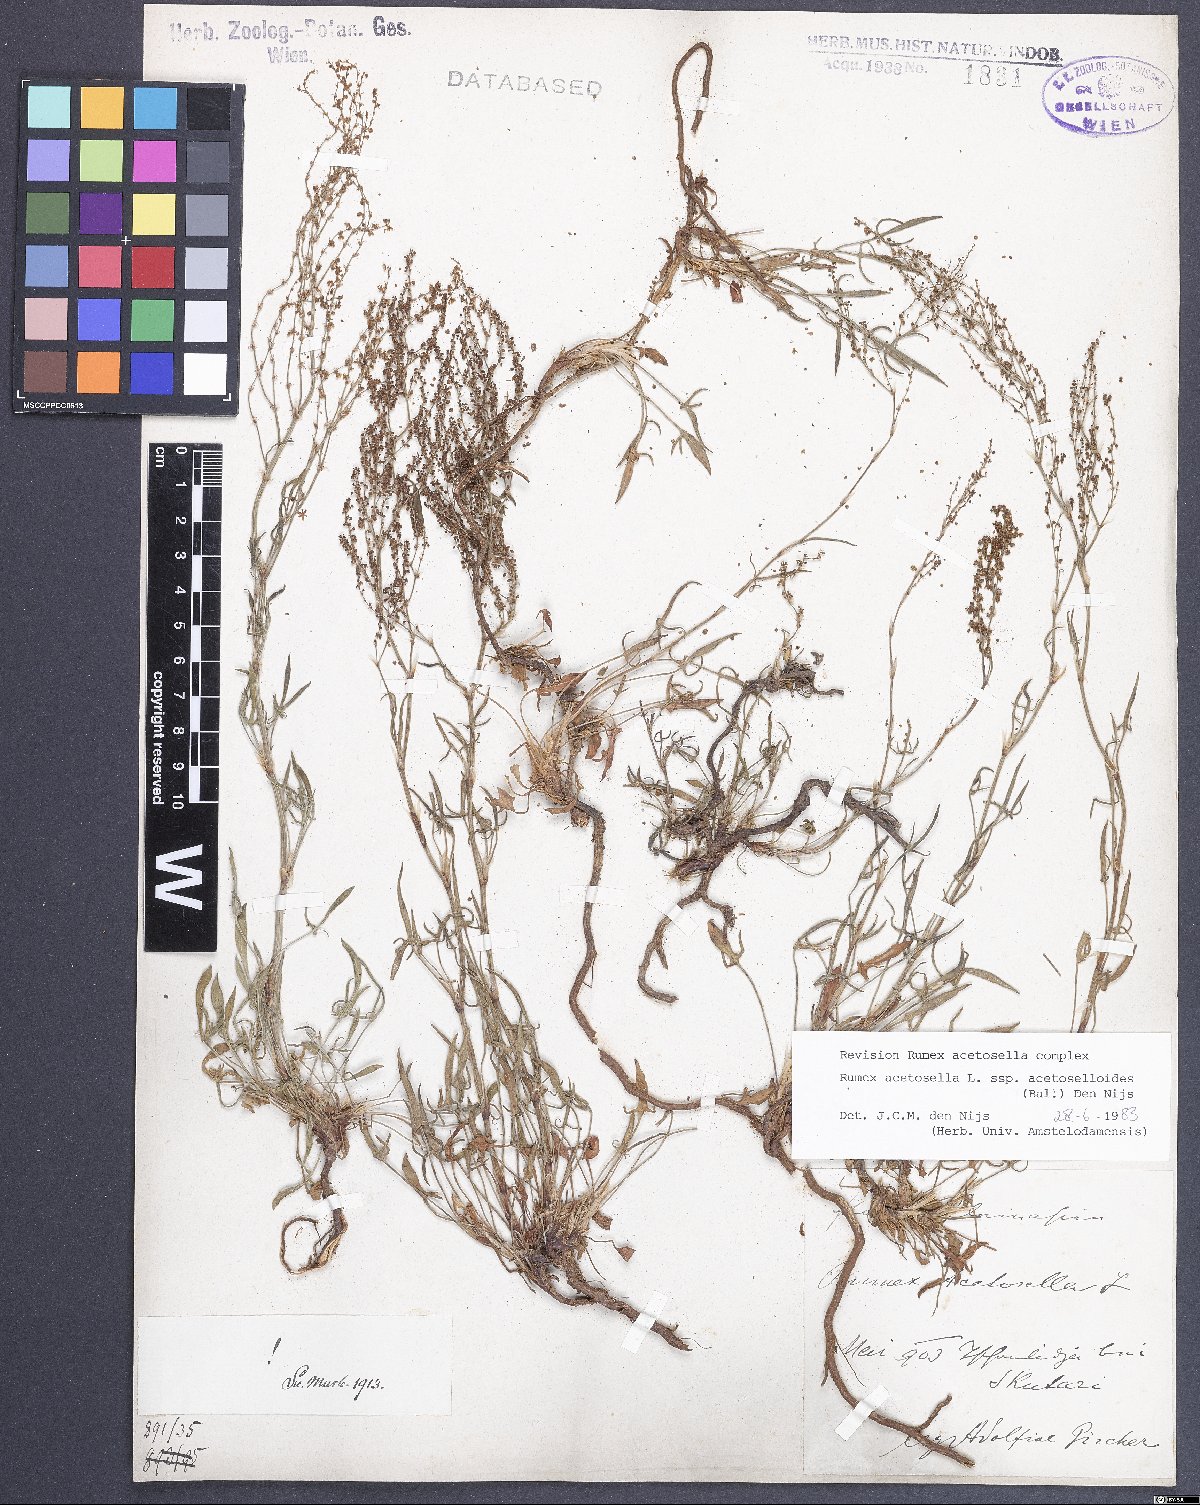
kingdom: Plantae
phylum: Tracheophyta
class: Magnoliopsida
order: Caryophyllales
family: Polygonaceae
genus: Rumex
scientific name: Rumex acetosella
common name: Common sheep sorrel
